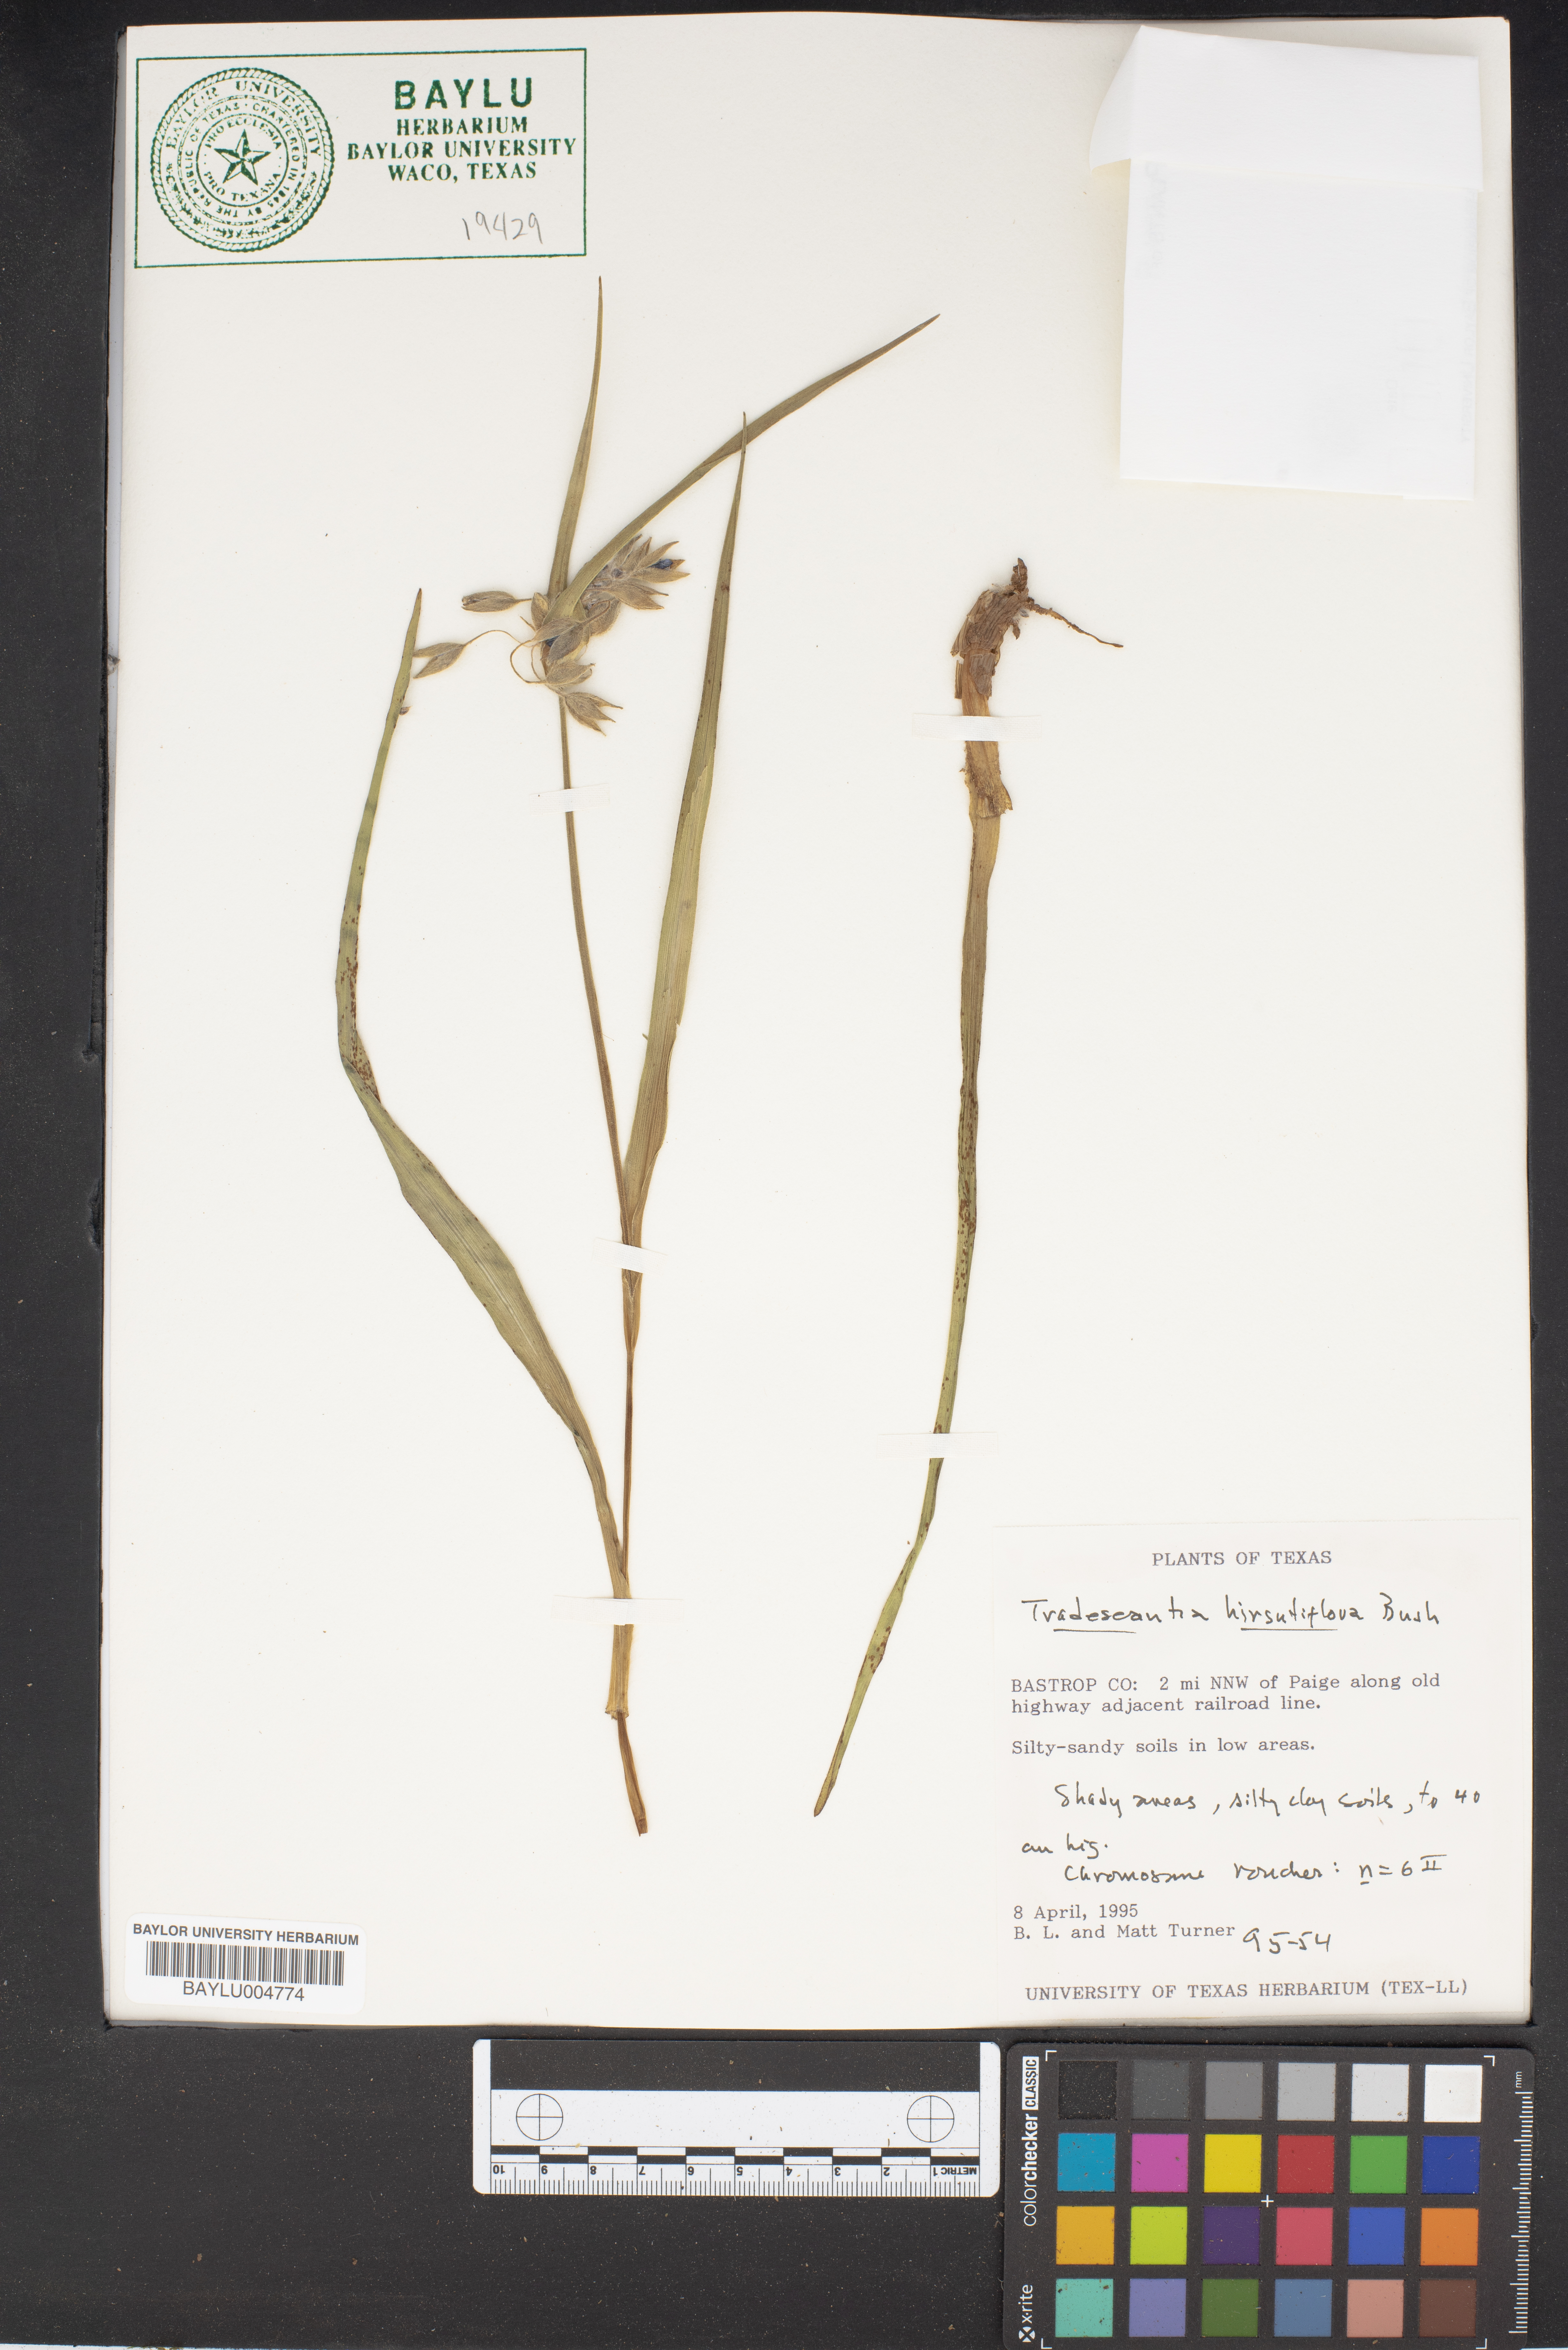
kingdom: Plantae
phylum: Tracheophyta
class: Liliopsida
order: Commelinales
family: Commelinaceae
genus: Tradescantia
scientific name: Tradescantia hirsutiflora
